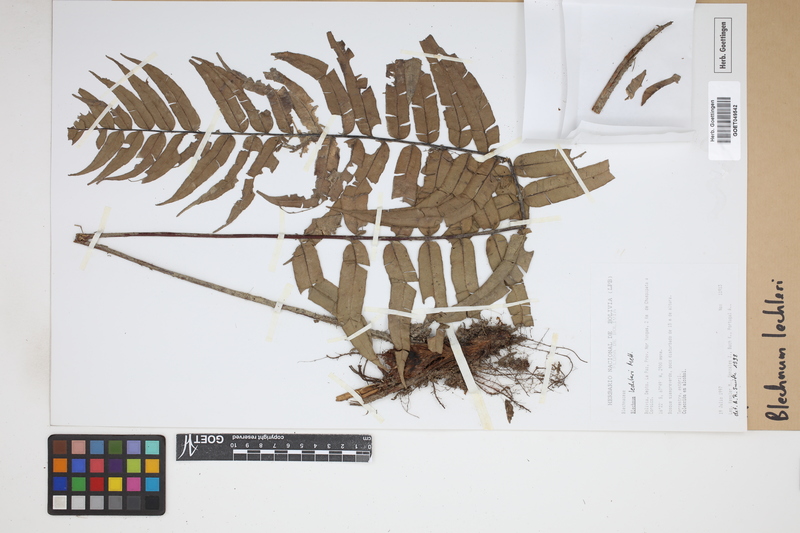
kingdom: Plantae
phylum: Tracheophyta
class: Polypodiopsida
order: Polypodiales
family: Blechnaceae
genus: Parablechnum
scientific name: Parablechnum lechleri
